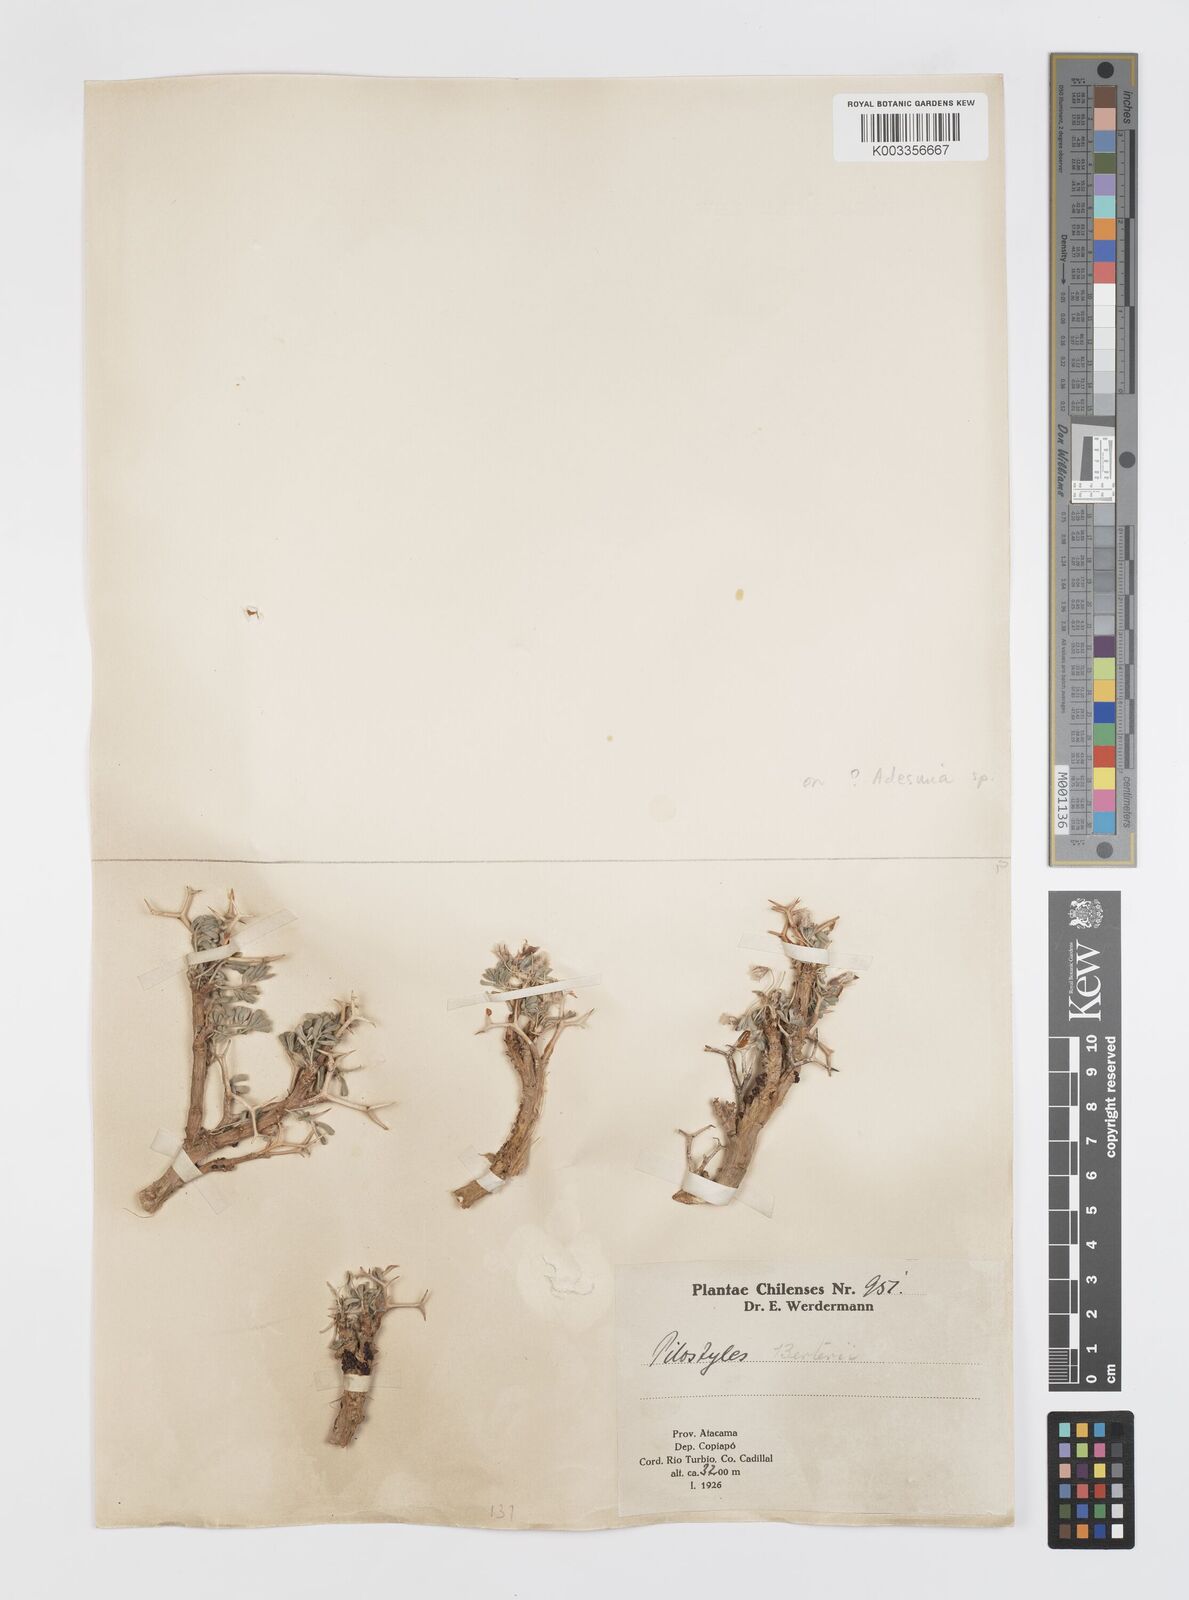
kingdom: Plantae
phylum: Tracheophyta
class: Magnoliopsida
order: Cucurbitales
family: Apodanthaceae
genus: Pilostyles
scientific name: Pilostyles berteroi
